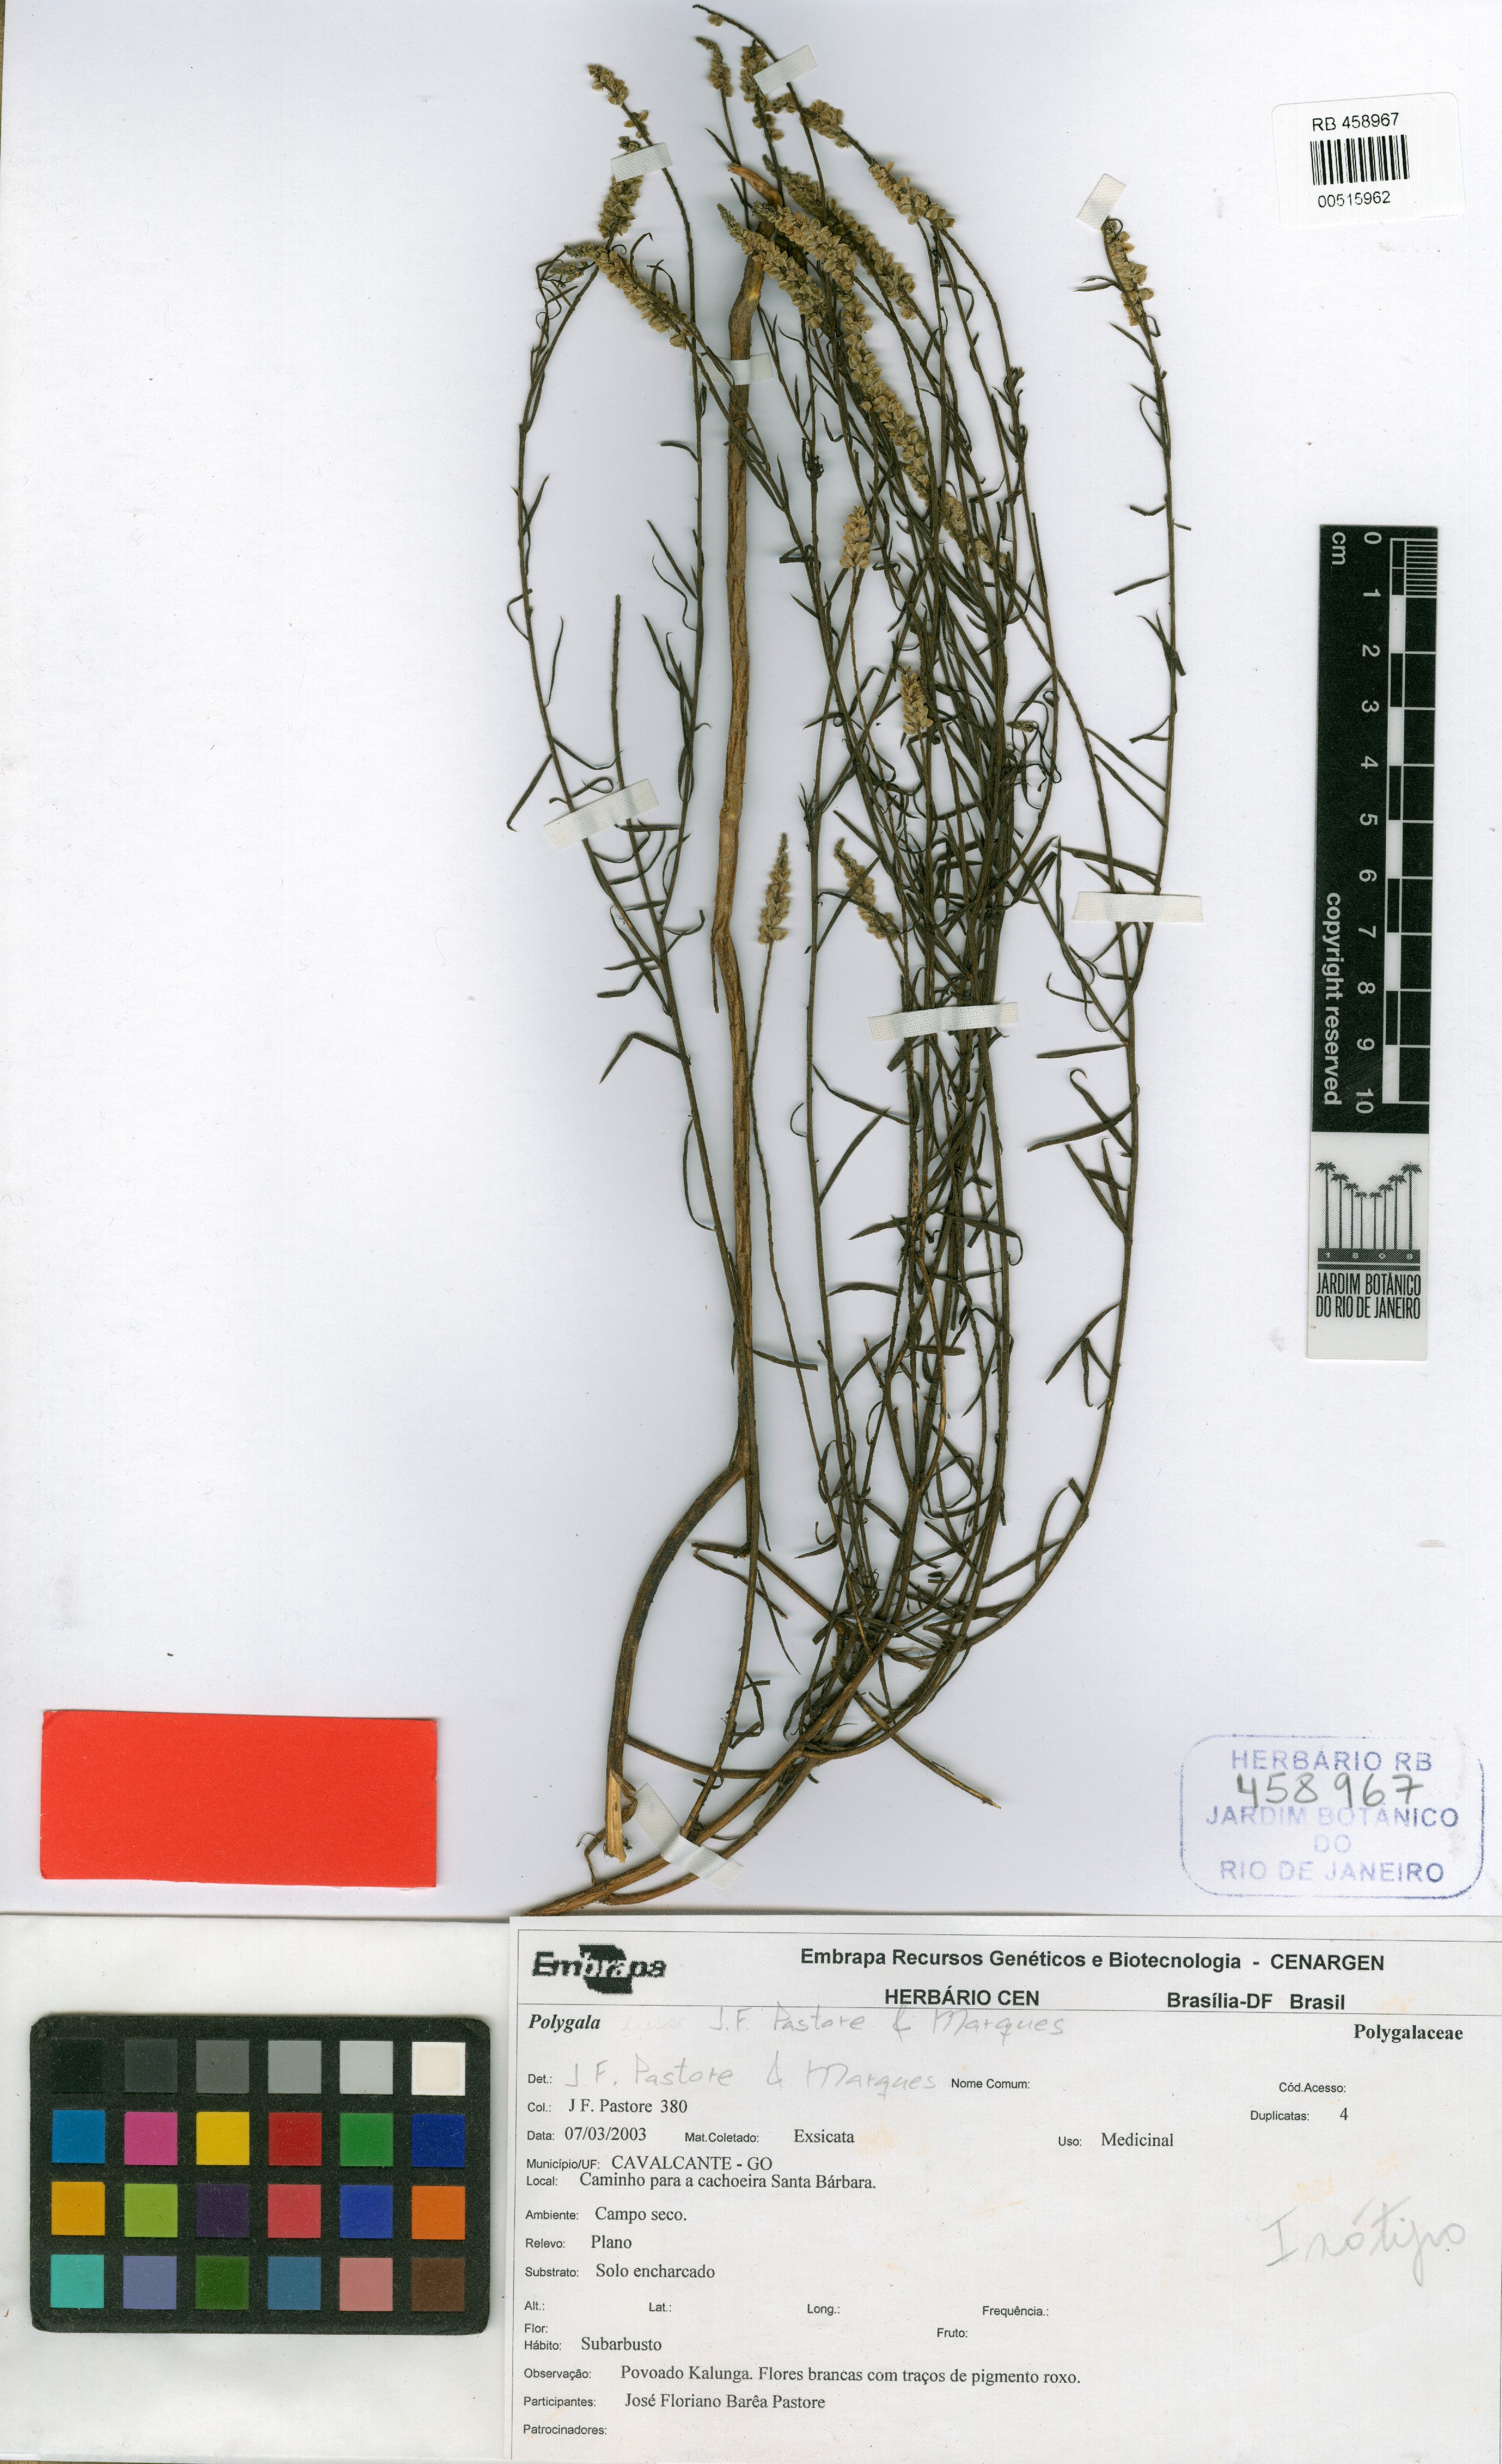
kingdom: Plantae
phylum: Tracheophyta
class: Magnoliopsida
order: Fabales
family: Polygalaceae
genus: Polygala
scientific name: Polygala suganumae
